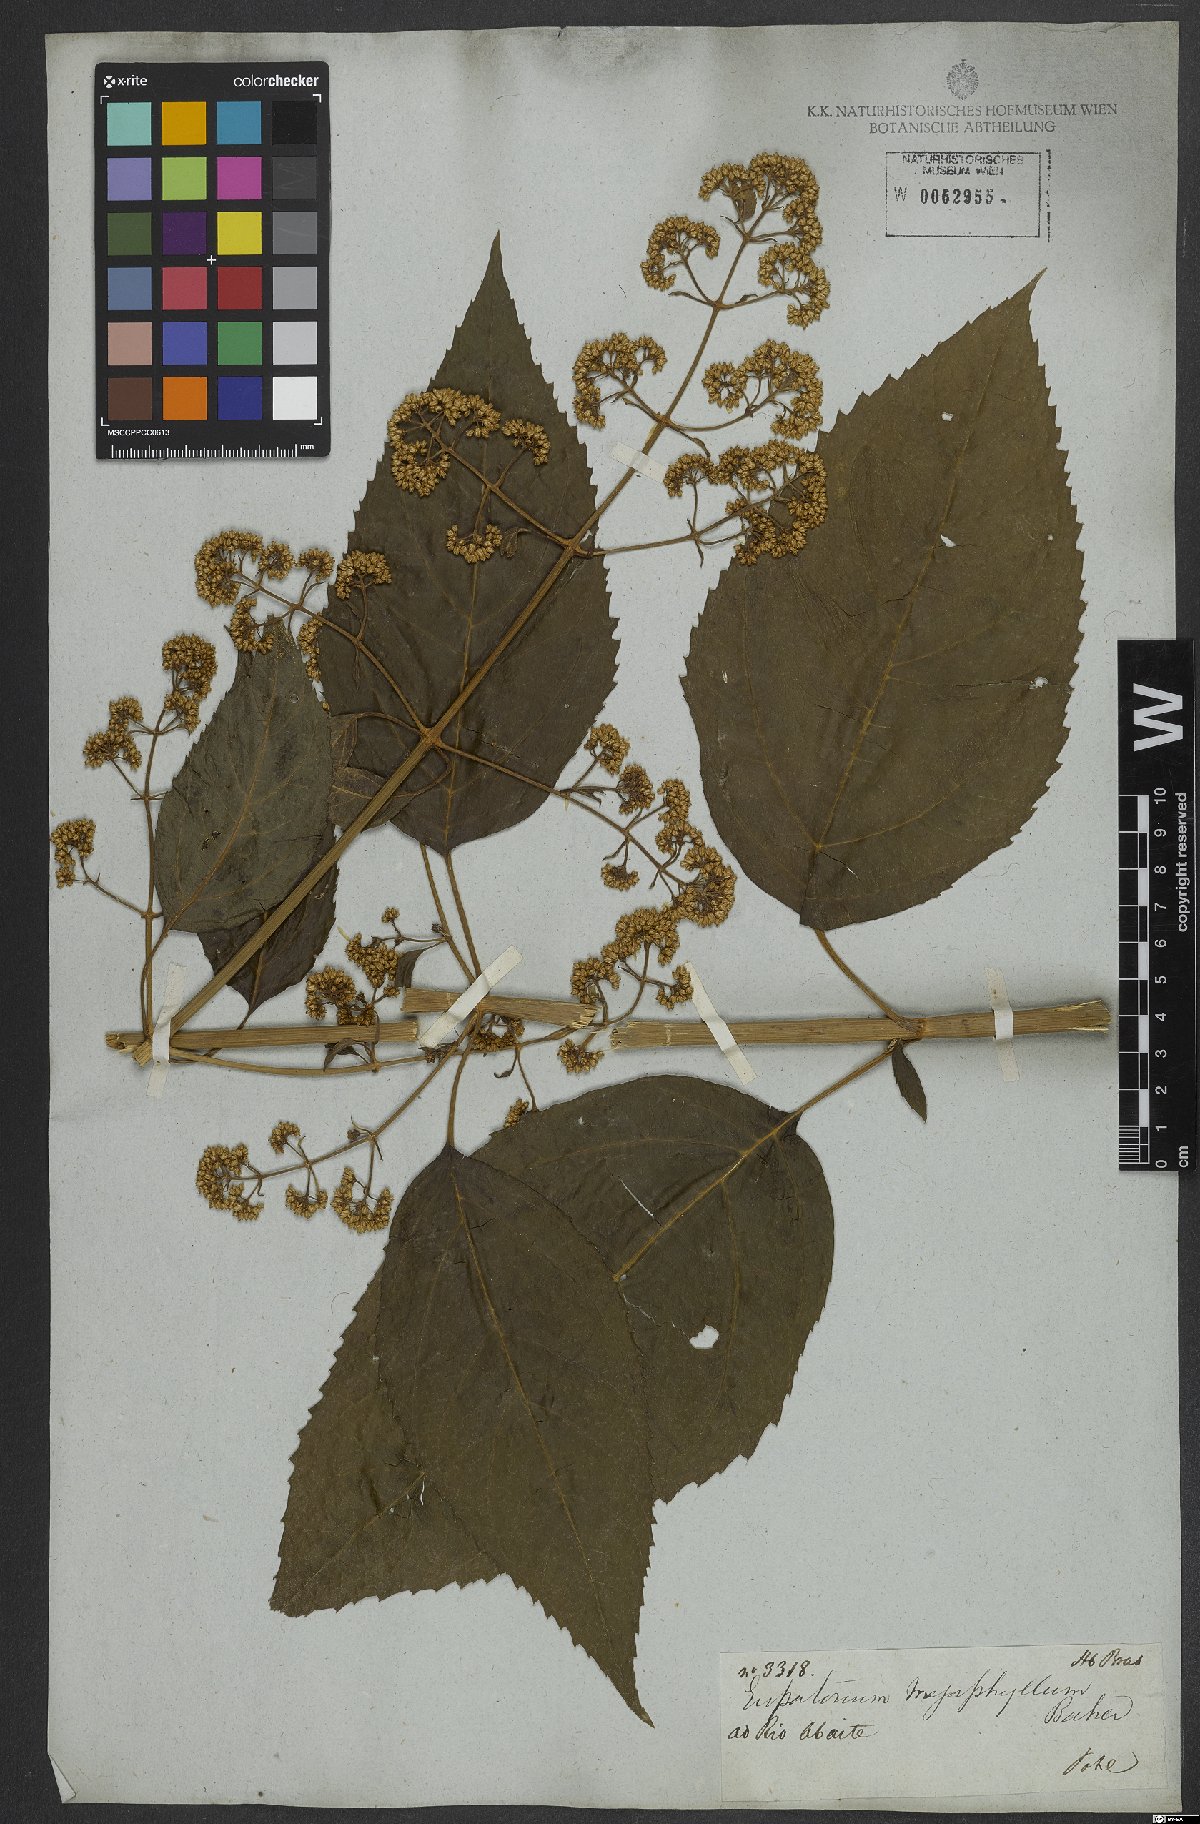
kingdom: Plantae
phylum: Tracheophyta
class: Magnoliopsida
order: Asterales
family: Asteraceae
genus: Critonia
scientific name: Critonia megaphylla
